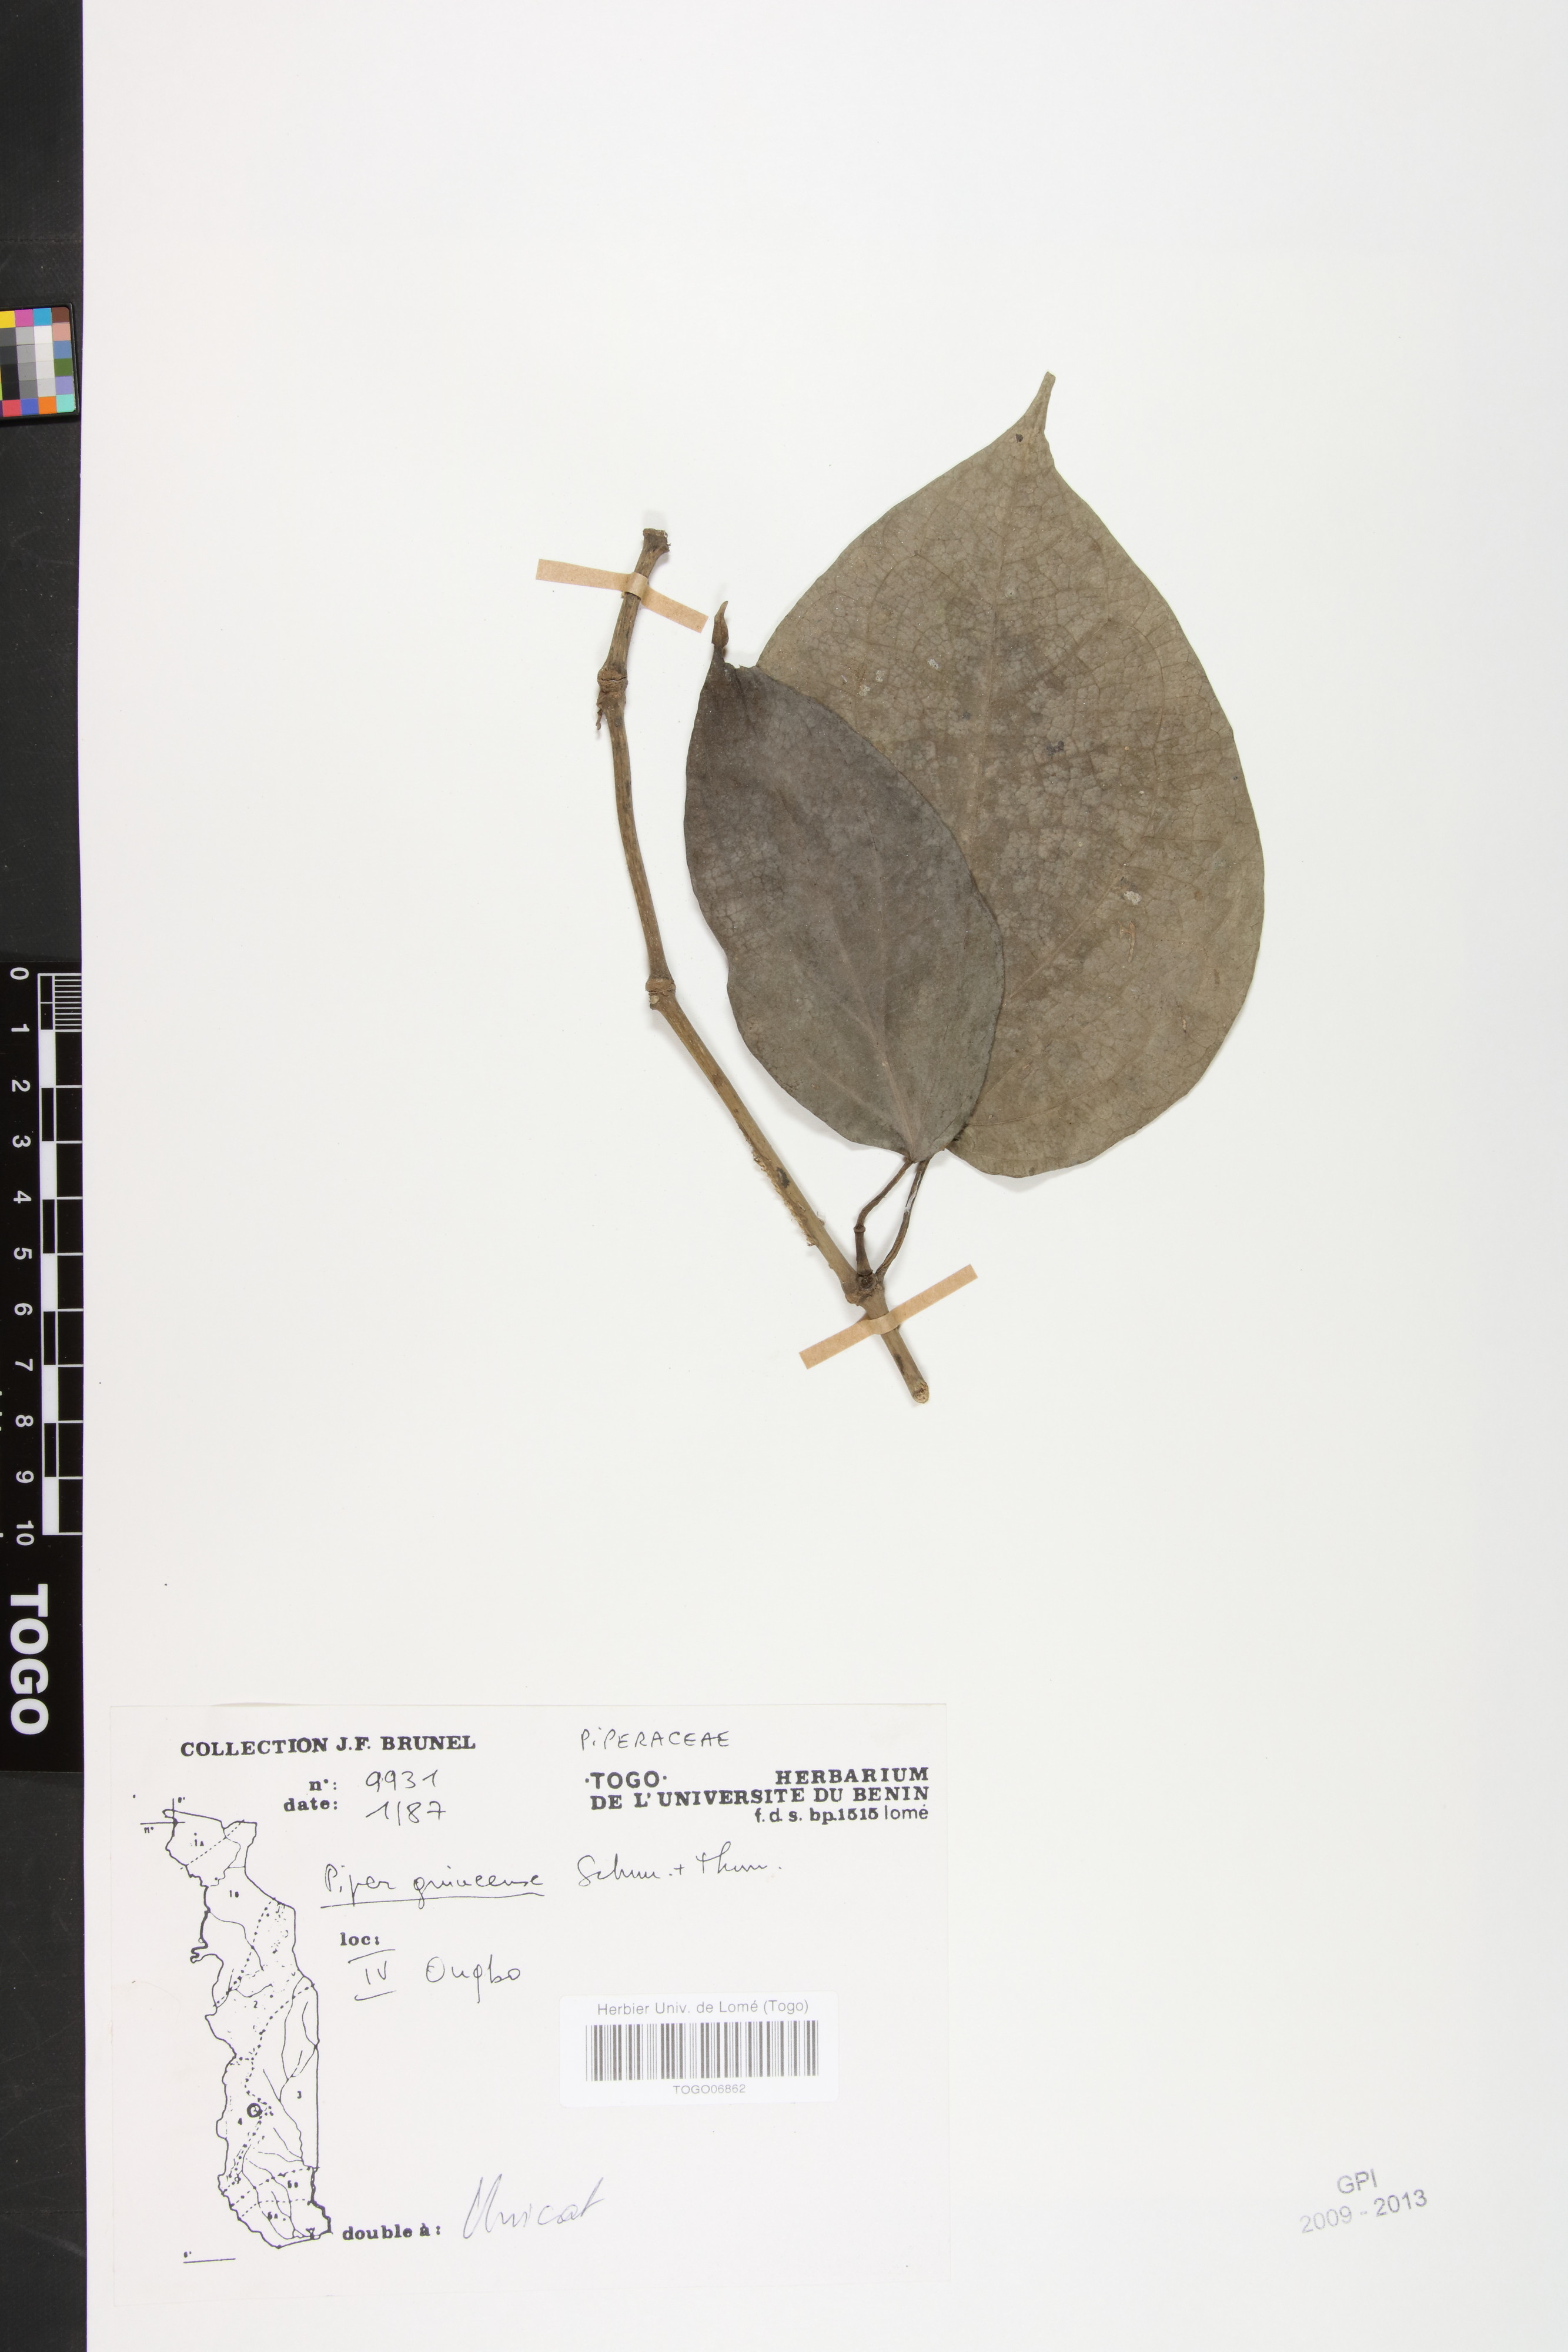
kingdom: Plantae
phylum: Tracheophyta
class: Magnoliopsida
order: Piperales
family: Piperaceae
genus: Piper
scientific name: Piper guineense
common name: Benin pepper
